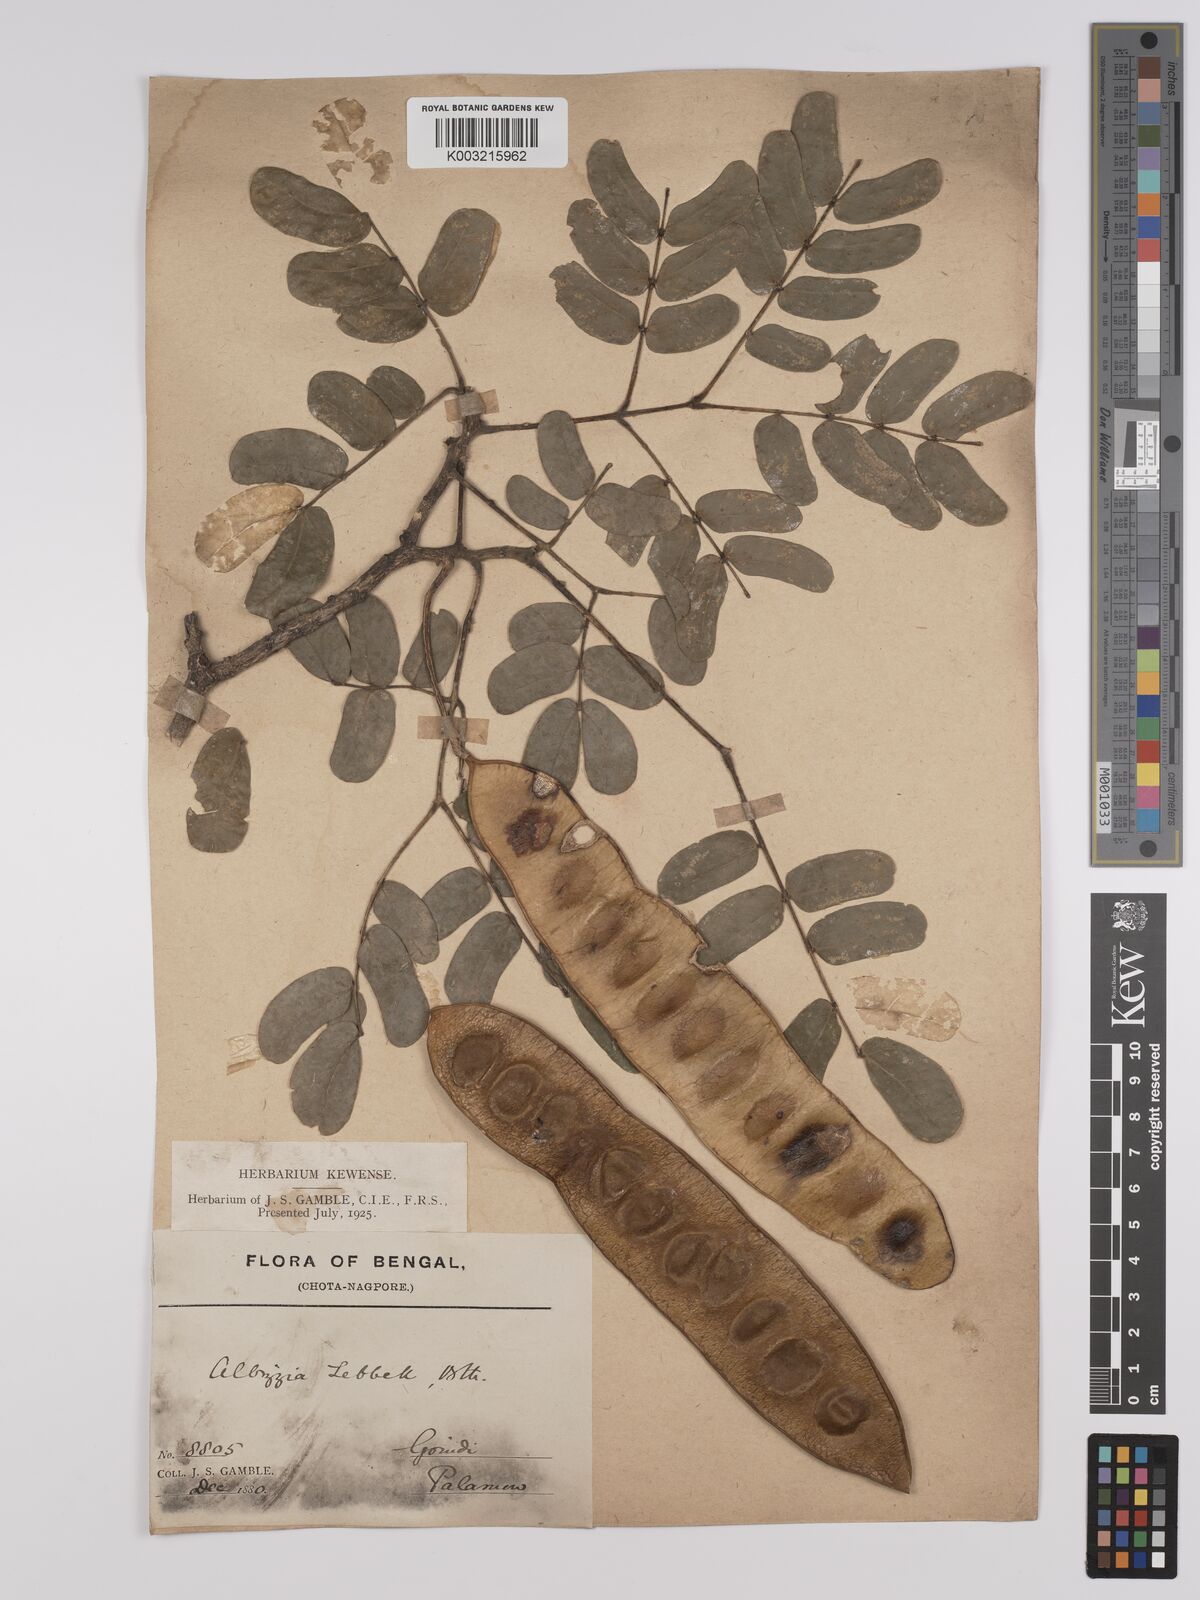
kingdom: Plantae
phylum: Tracheophyta
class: Magnoliopsida
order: Fabales
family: Fabaceae
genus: Albizia
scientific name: Albizia lebbeck
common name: Woman's tongue
